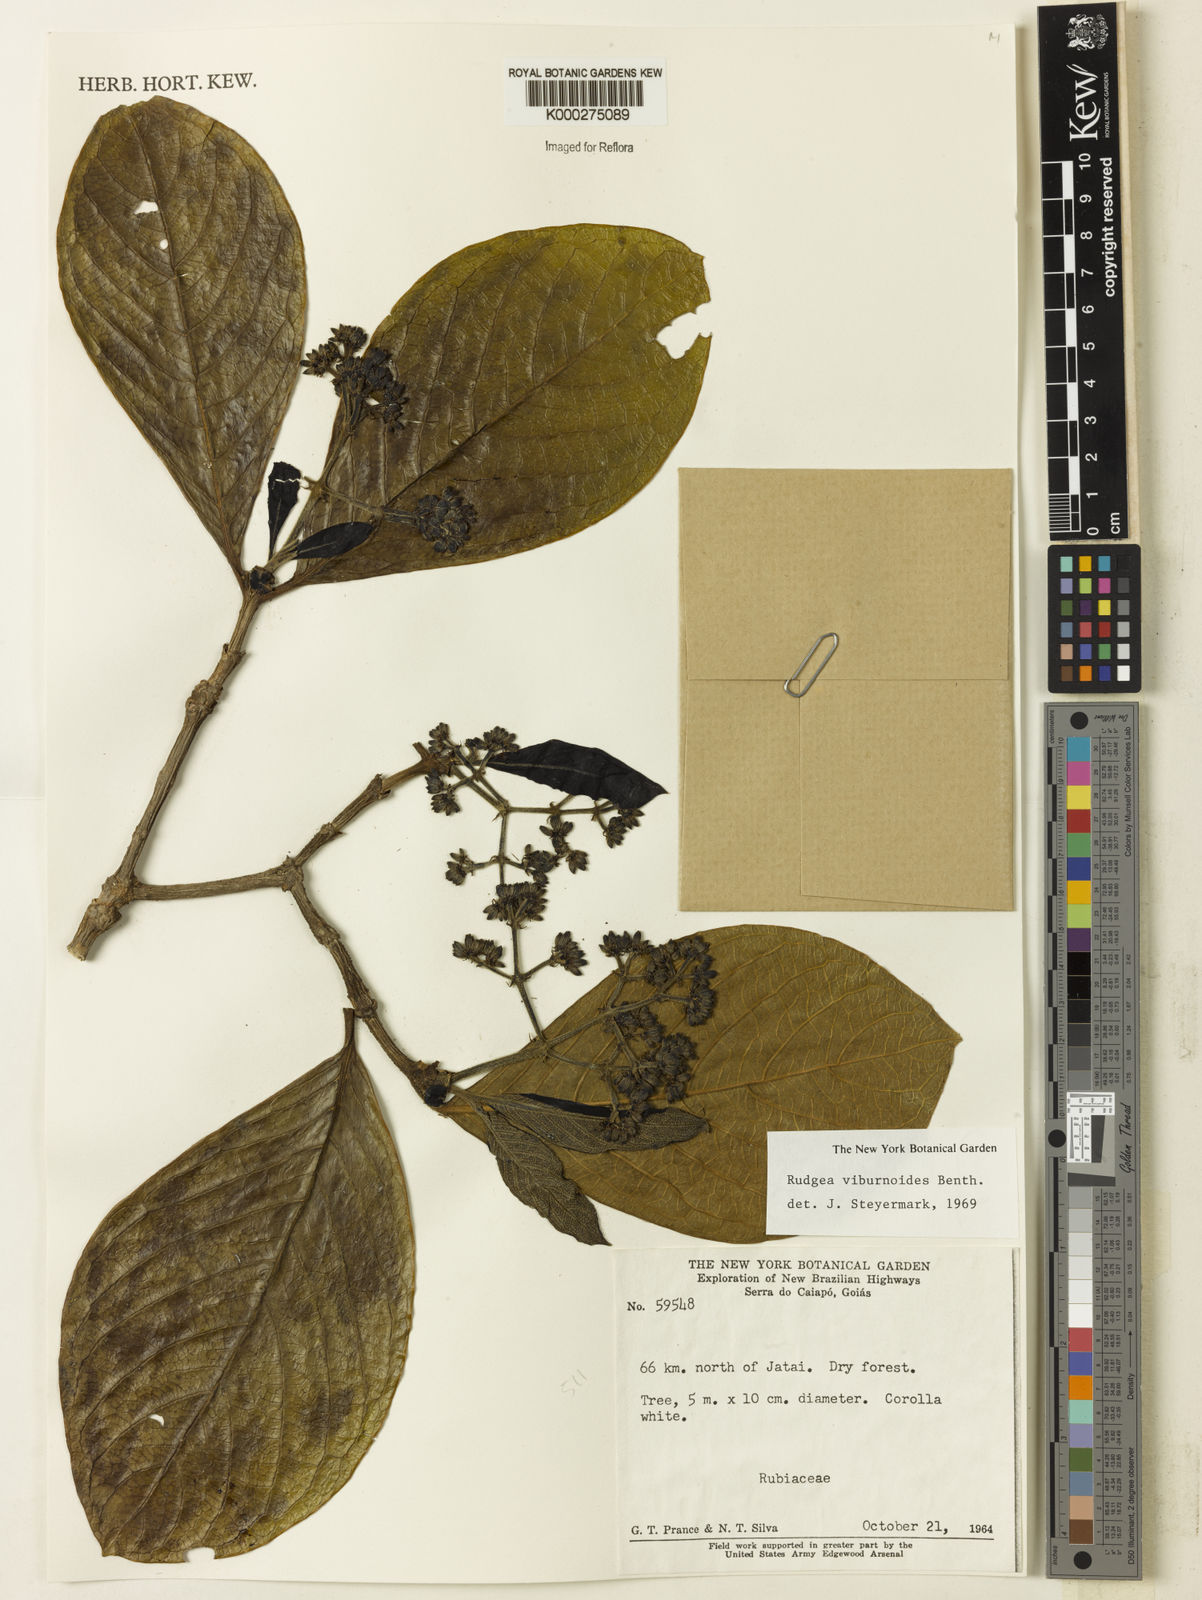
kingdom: Plantae
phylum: Tracheophyta
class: Magnoliopsida
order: Gentianales
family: Rubiaceae
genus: Rudgea
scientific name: Rudgea viburnoides
